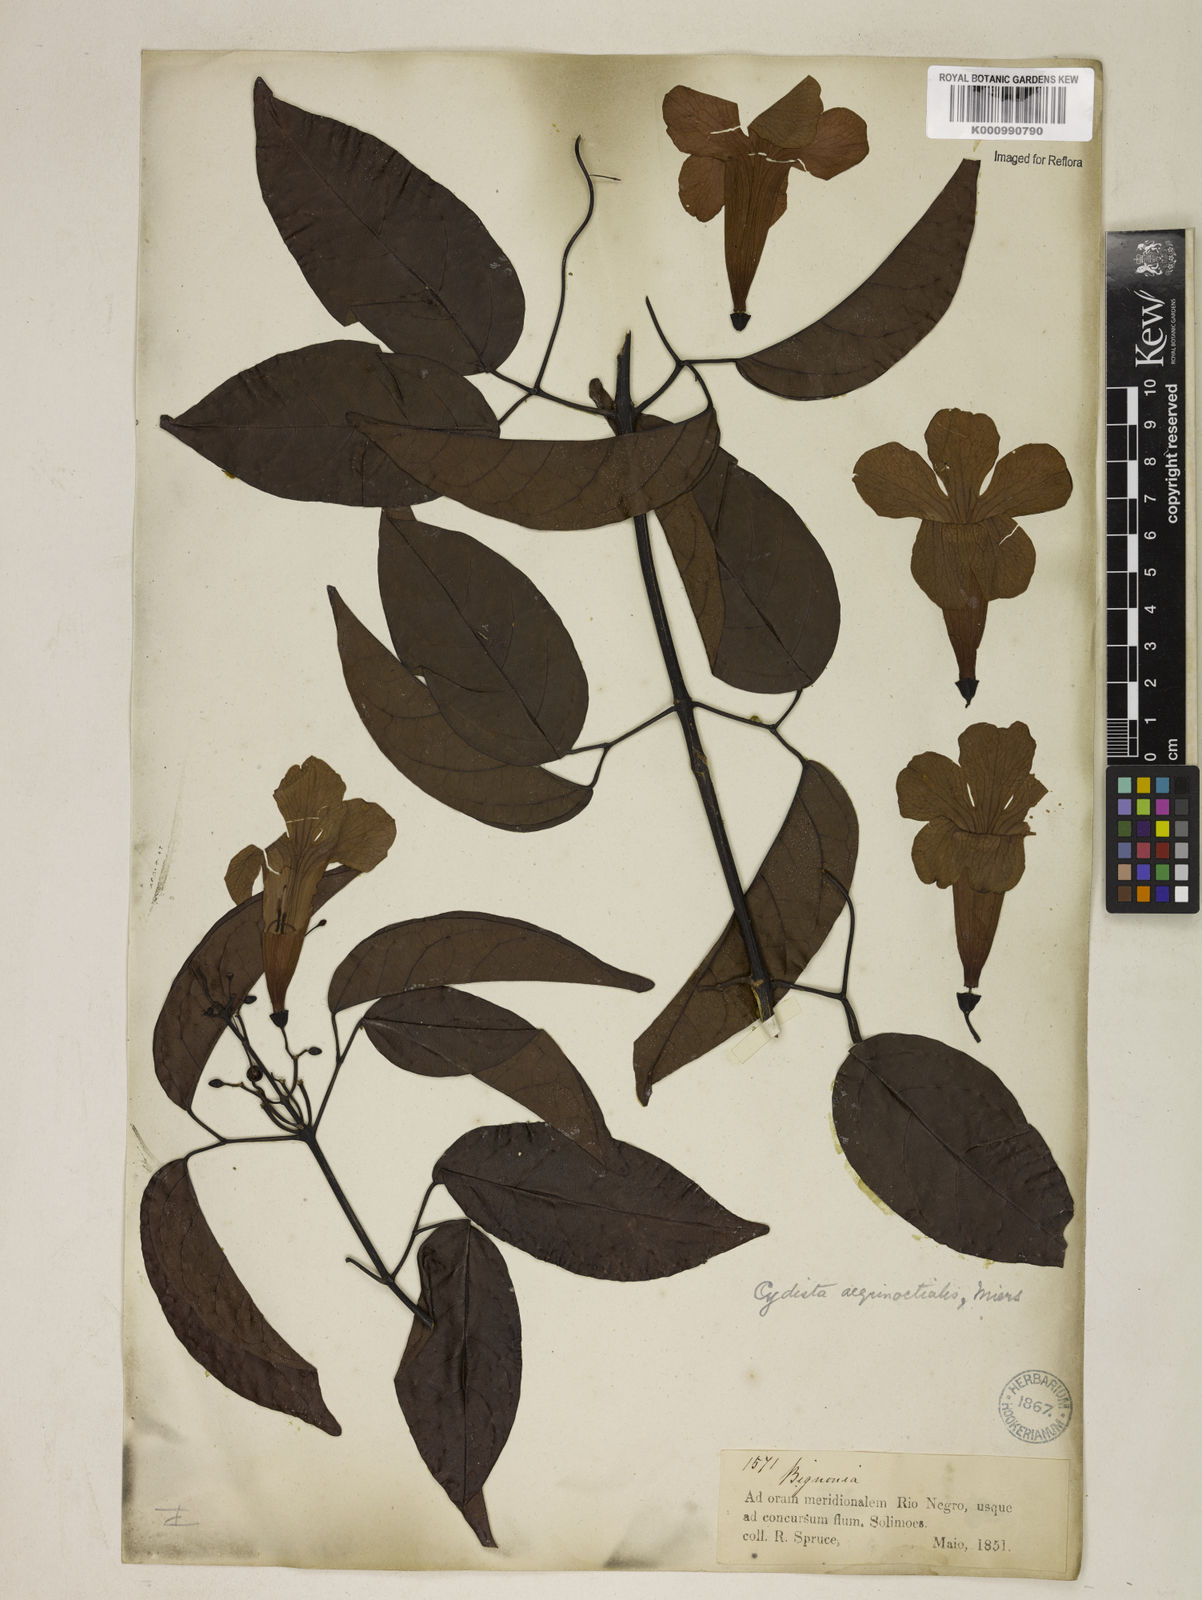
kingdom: Plantae
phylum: Tracheophyta
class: Magnoliopsida
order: Lamiales
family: Bignoniaceae
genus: Bignonia
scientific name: Bignonia aequinoctialis
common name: Garlicvine
